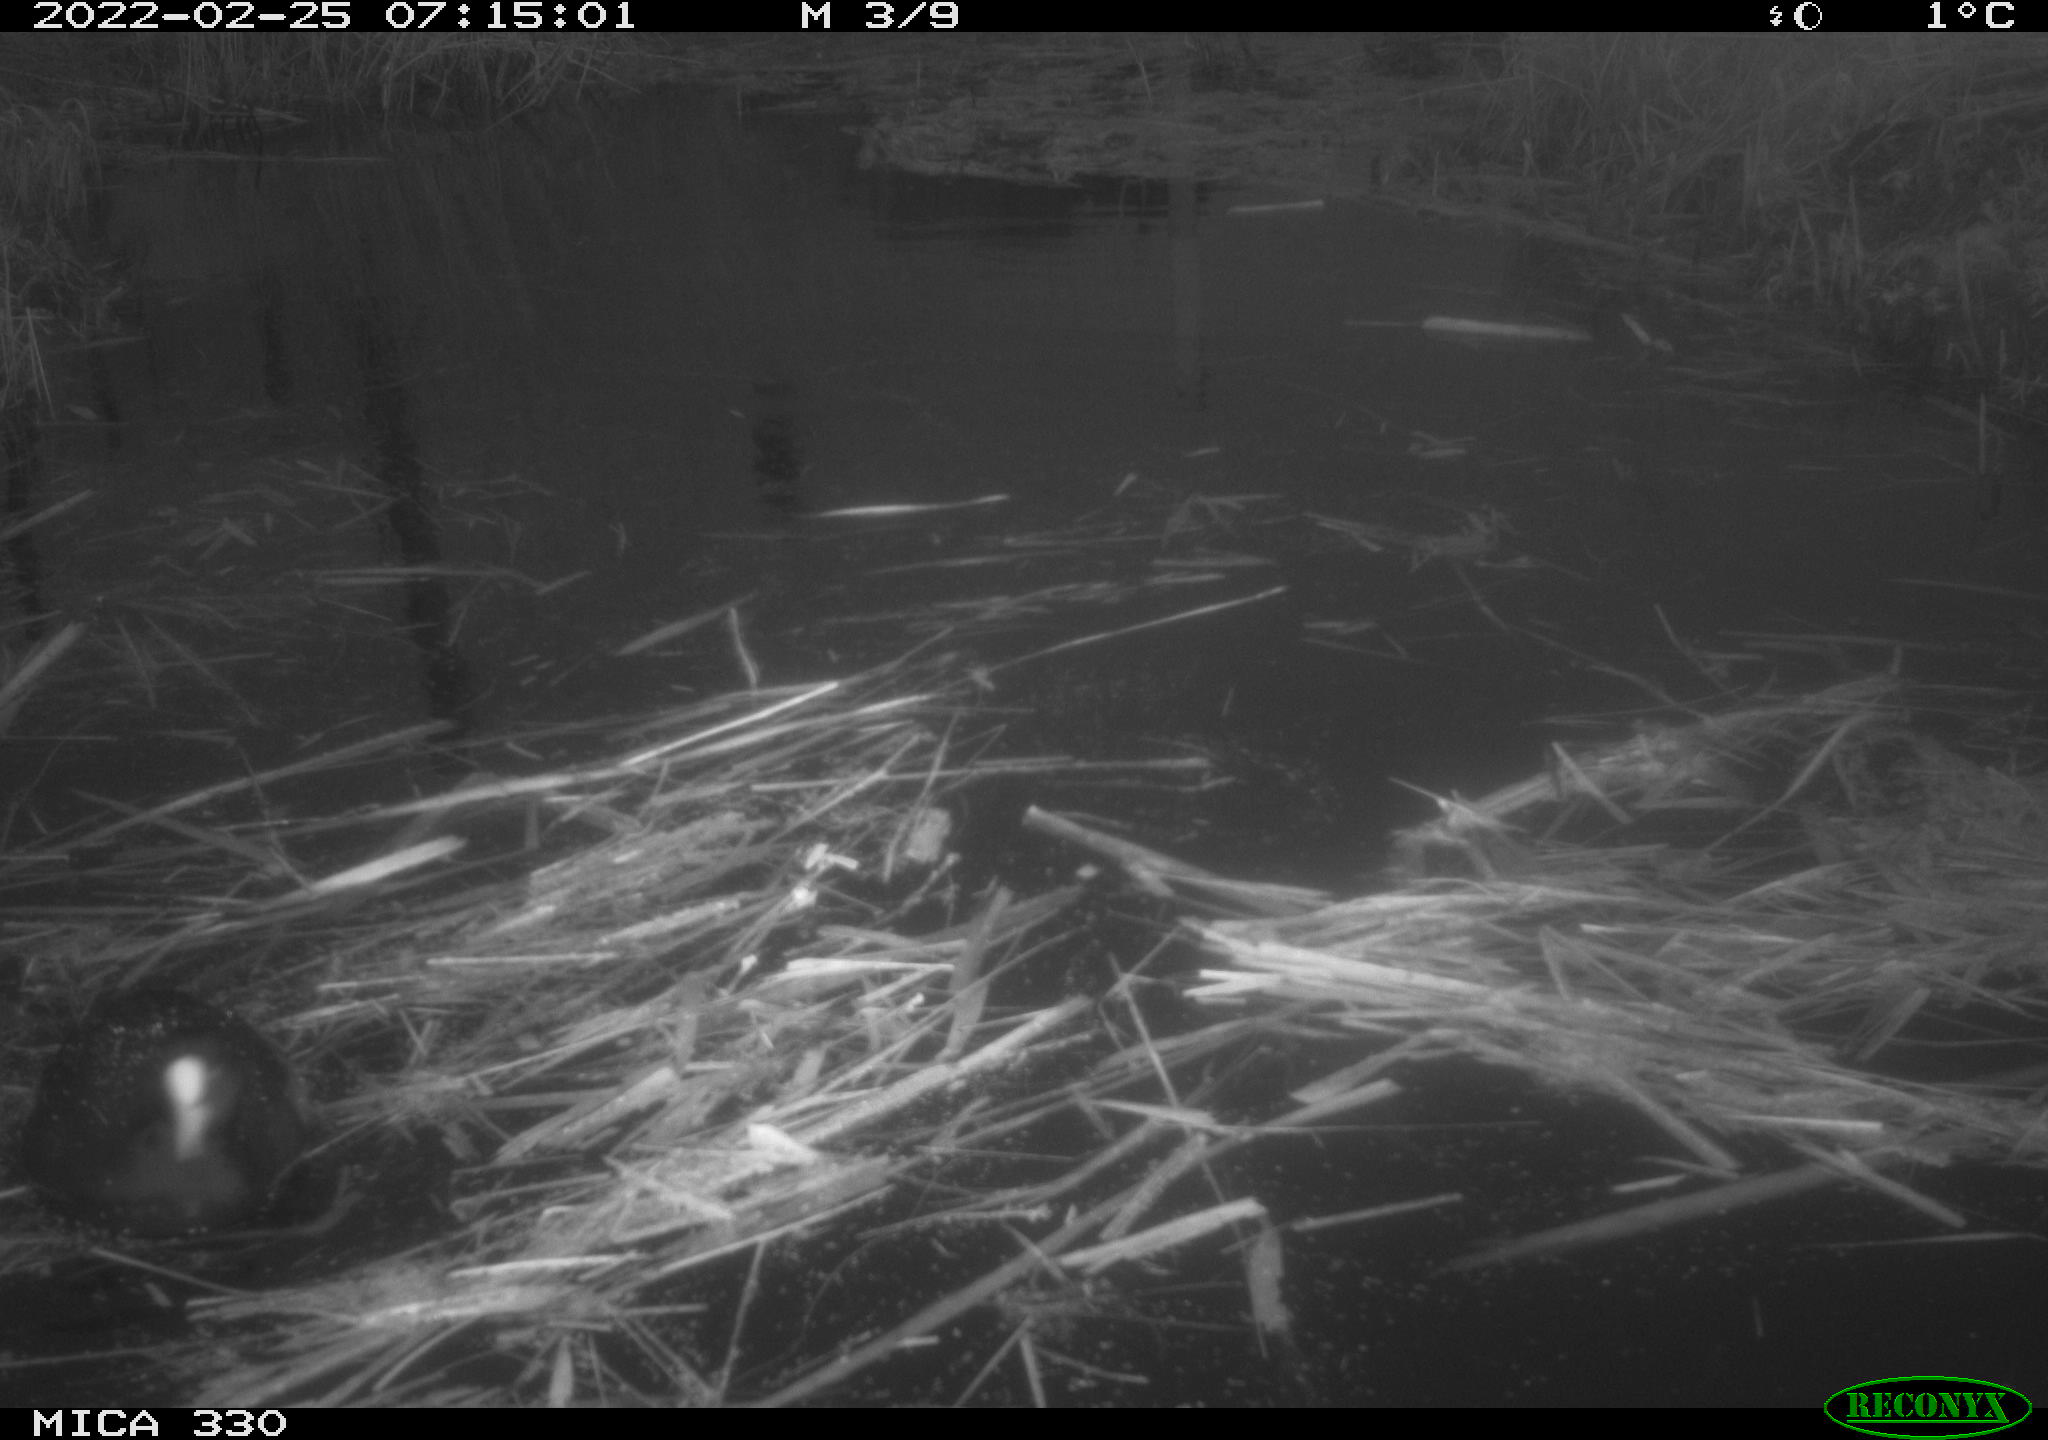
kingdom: Animalia
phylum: Chordata
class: Aves
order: Gruiformes
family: Rallidae
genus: Fulica
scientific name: Fulica atra
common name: Eurasian coot
